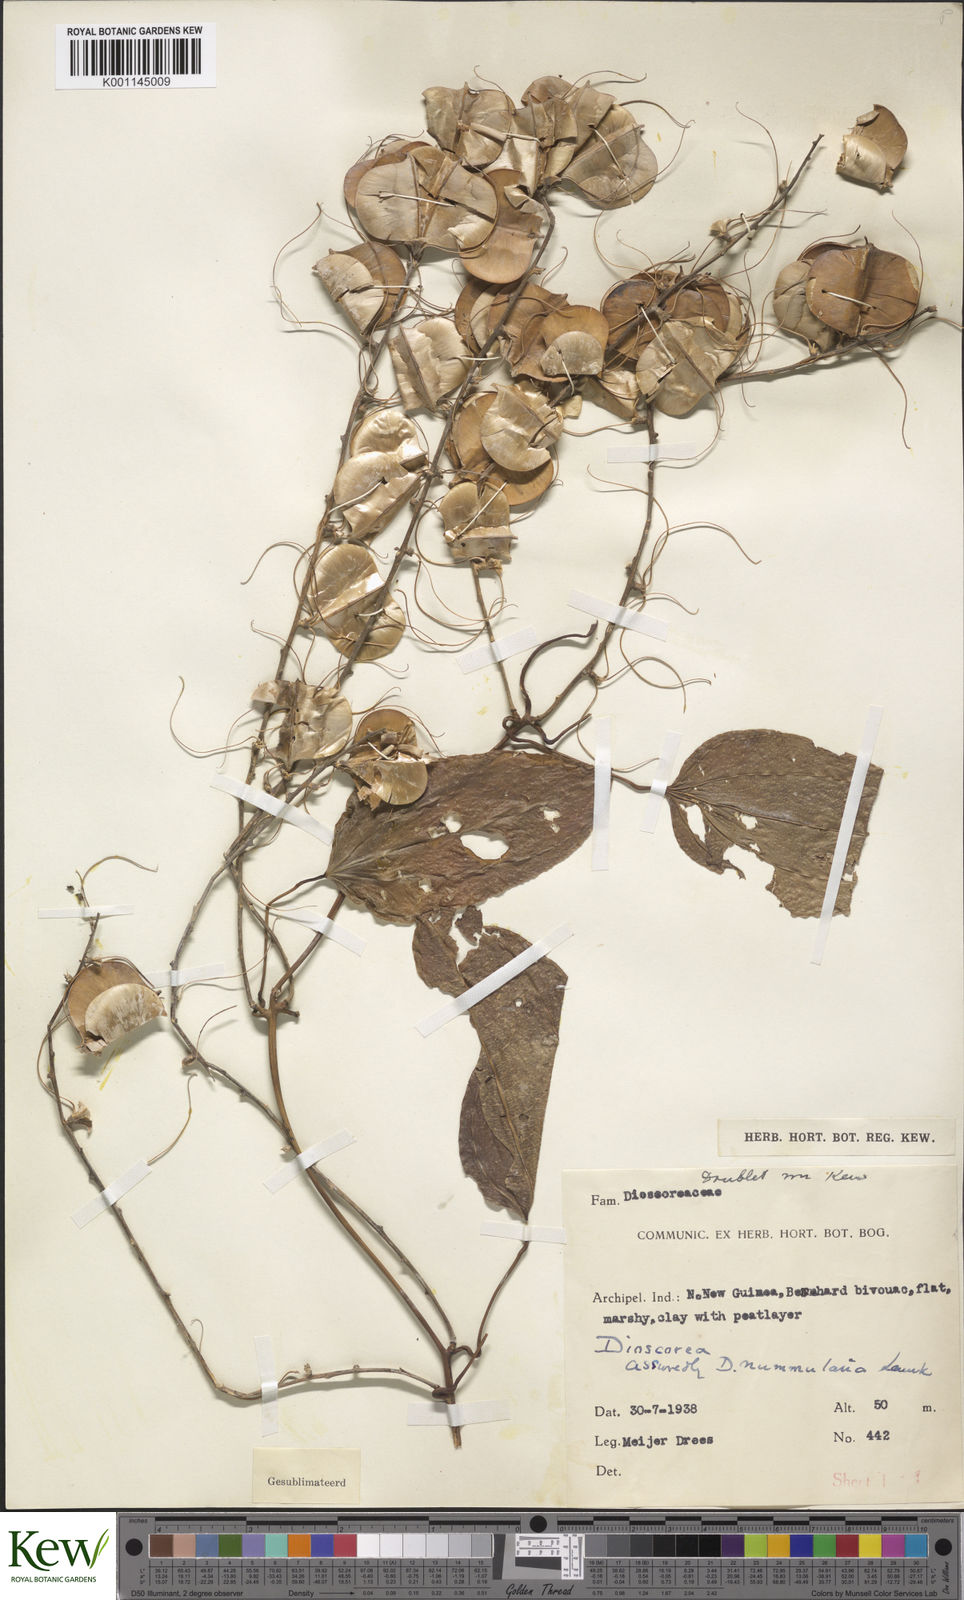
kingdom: Plantae
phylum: Tracheophyta
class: Liliopsida
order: Dioscoreales
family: Dioscoreaceae
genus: Dioscorea
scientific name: Dioscorea nummularia
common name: Pacific yam
